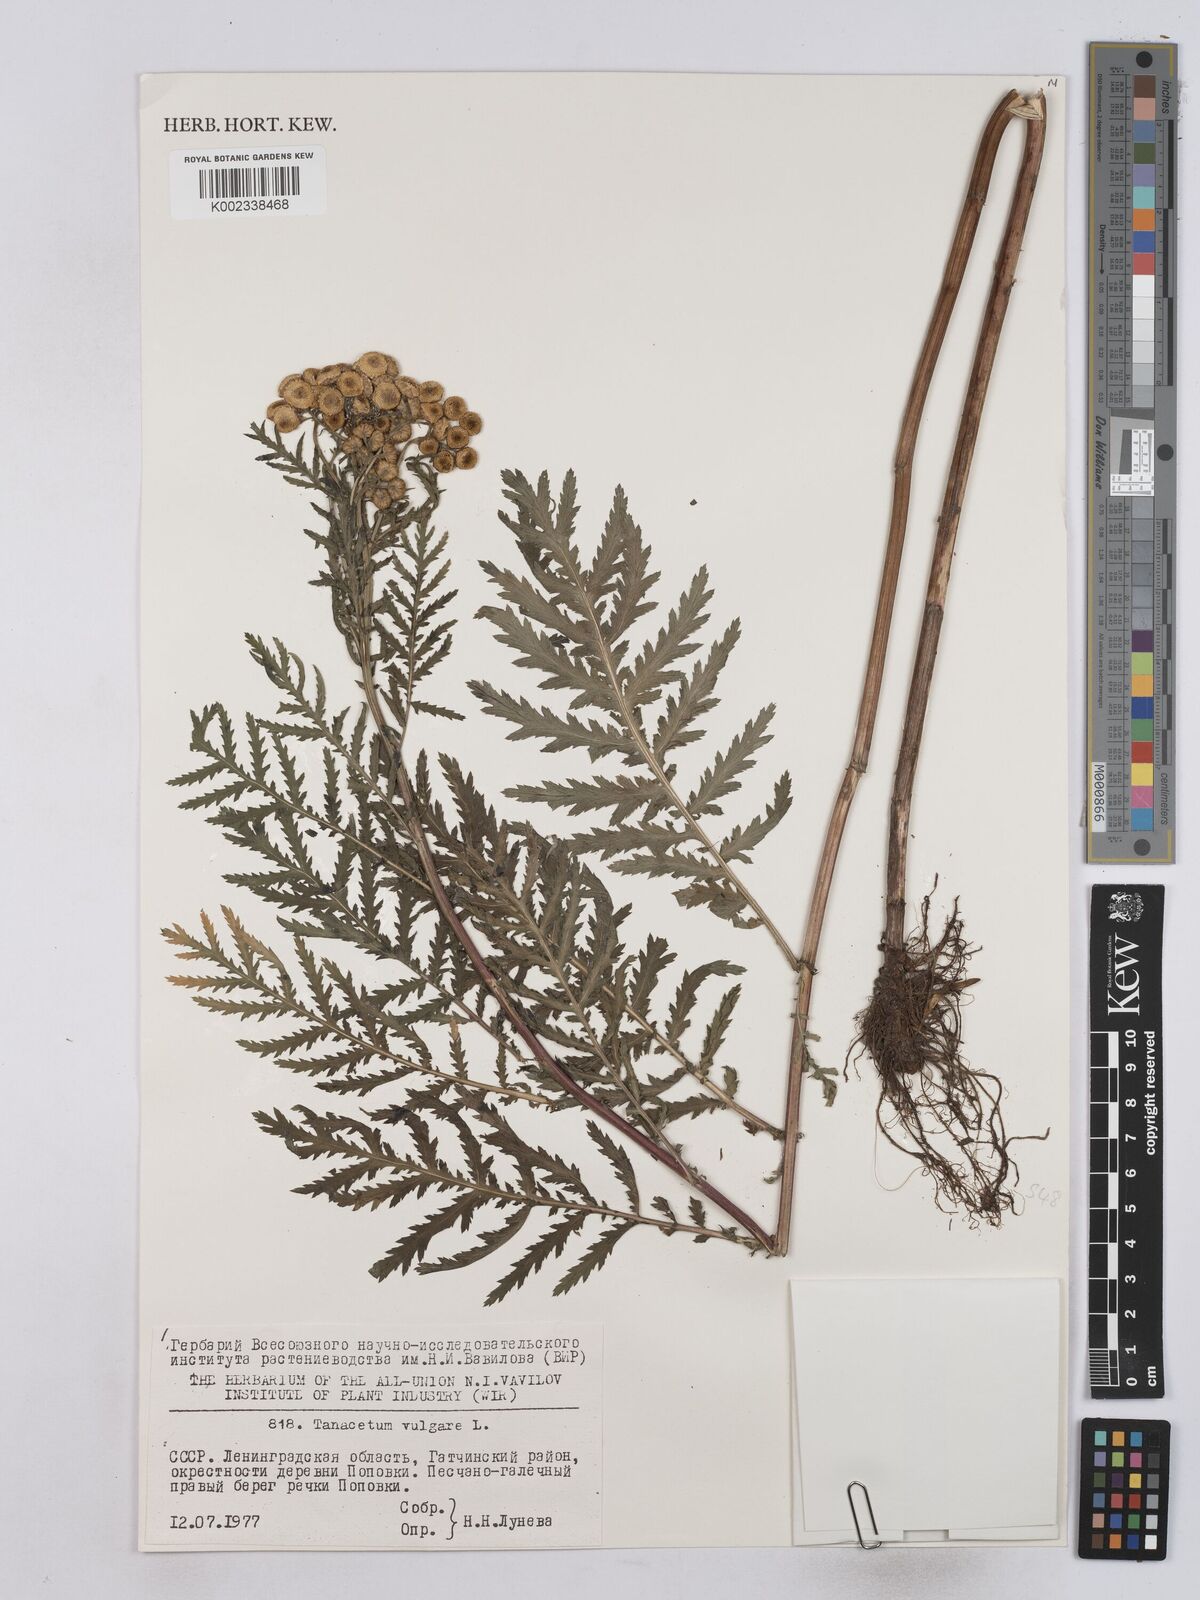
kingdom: Plantae
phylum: Tracheophyta
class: Magnoliopsida
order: Asterales
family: Asteraceae
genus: Tanacetum
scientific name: Tanacetum vulgare
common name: Common tansy
